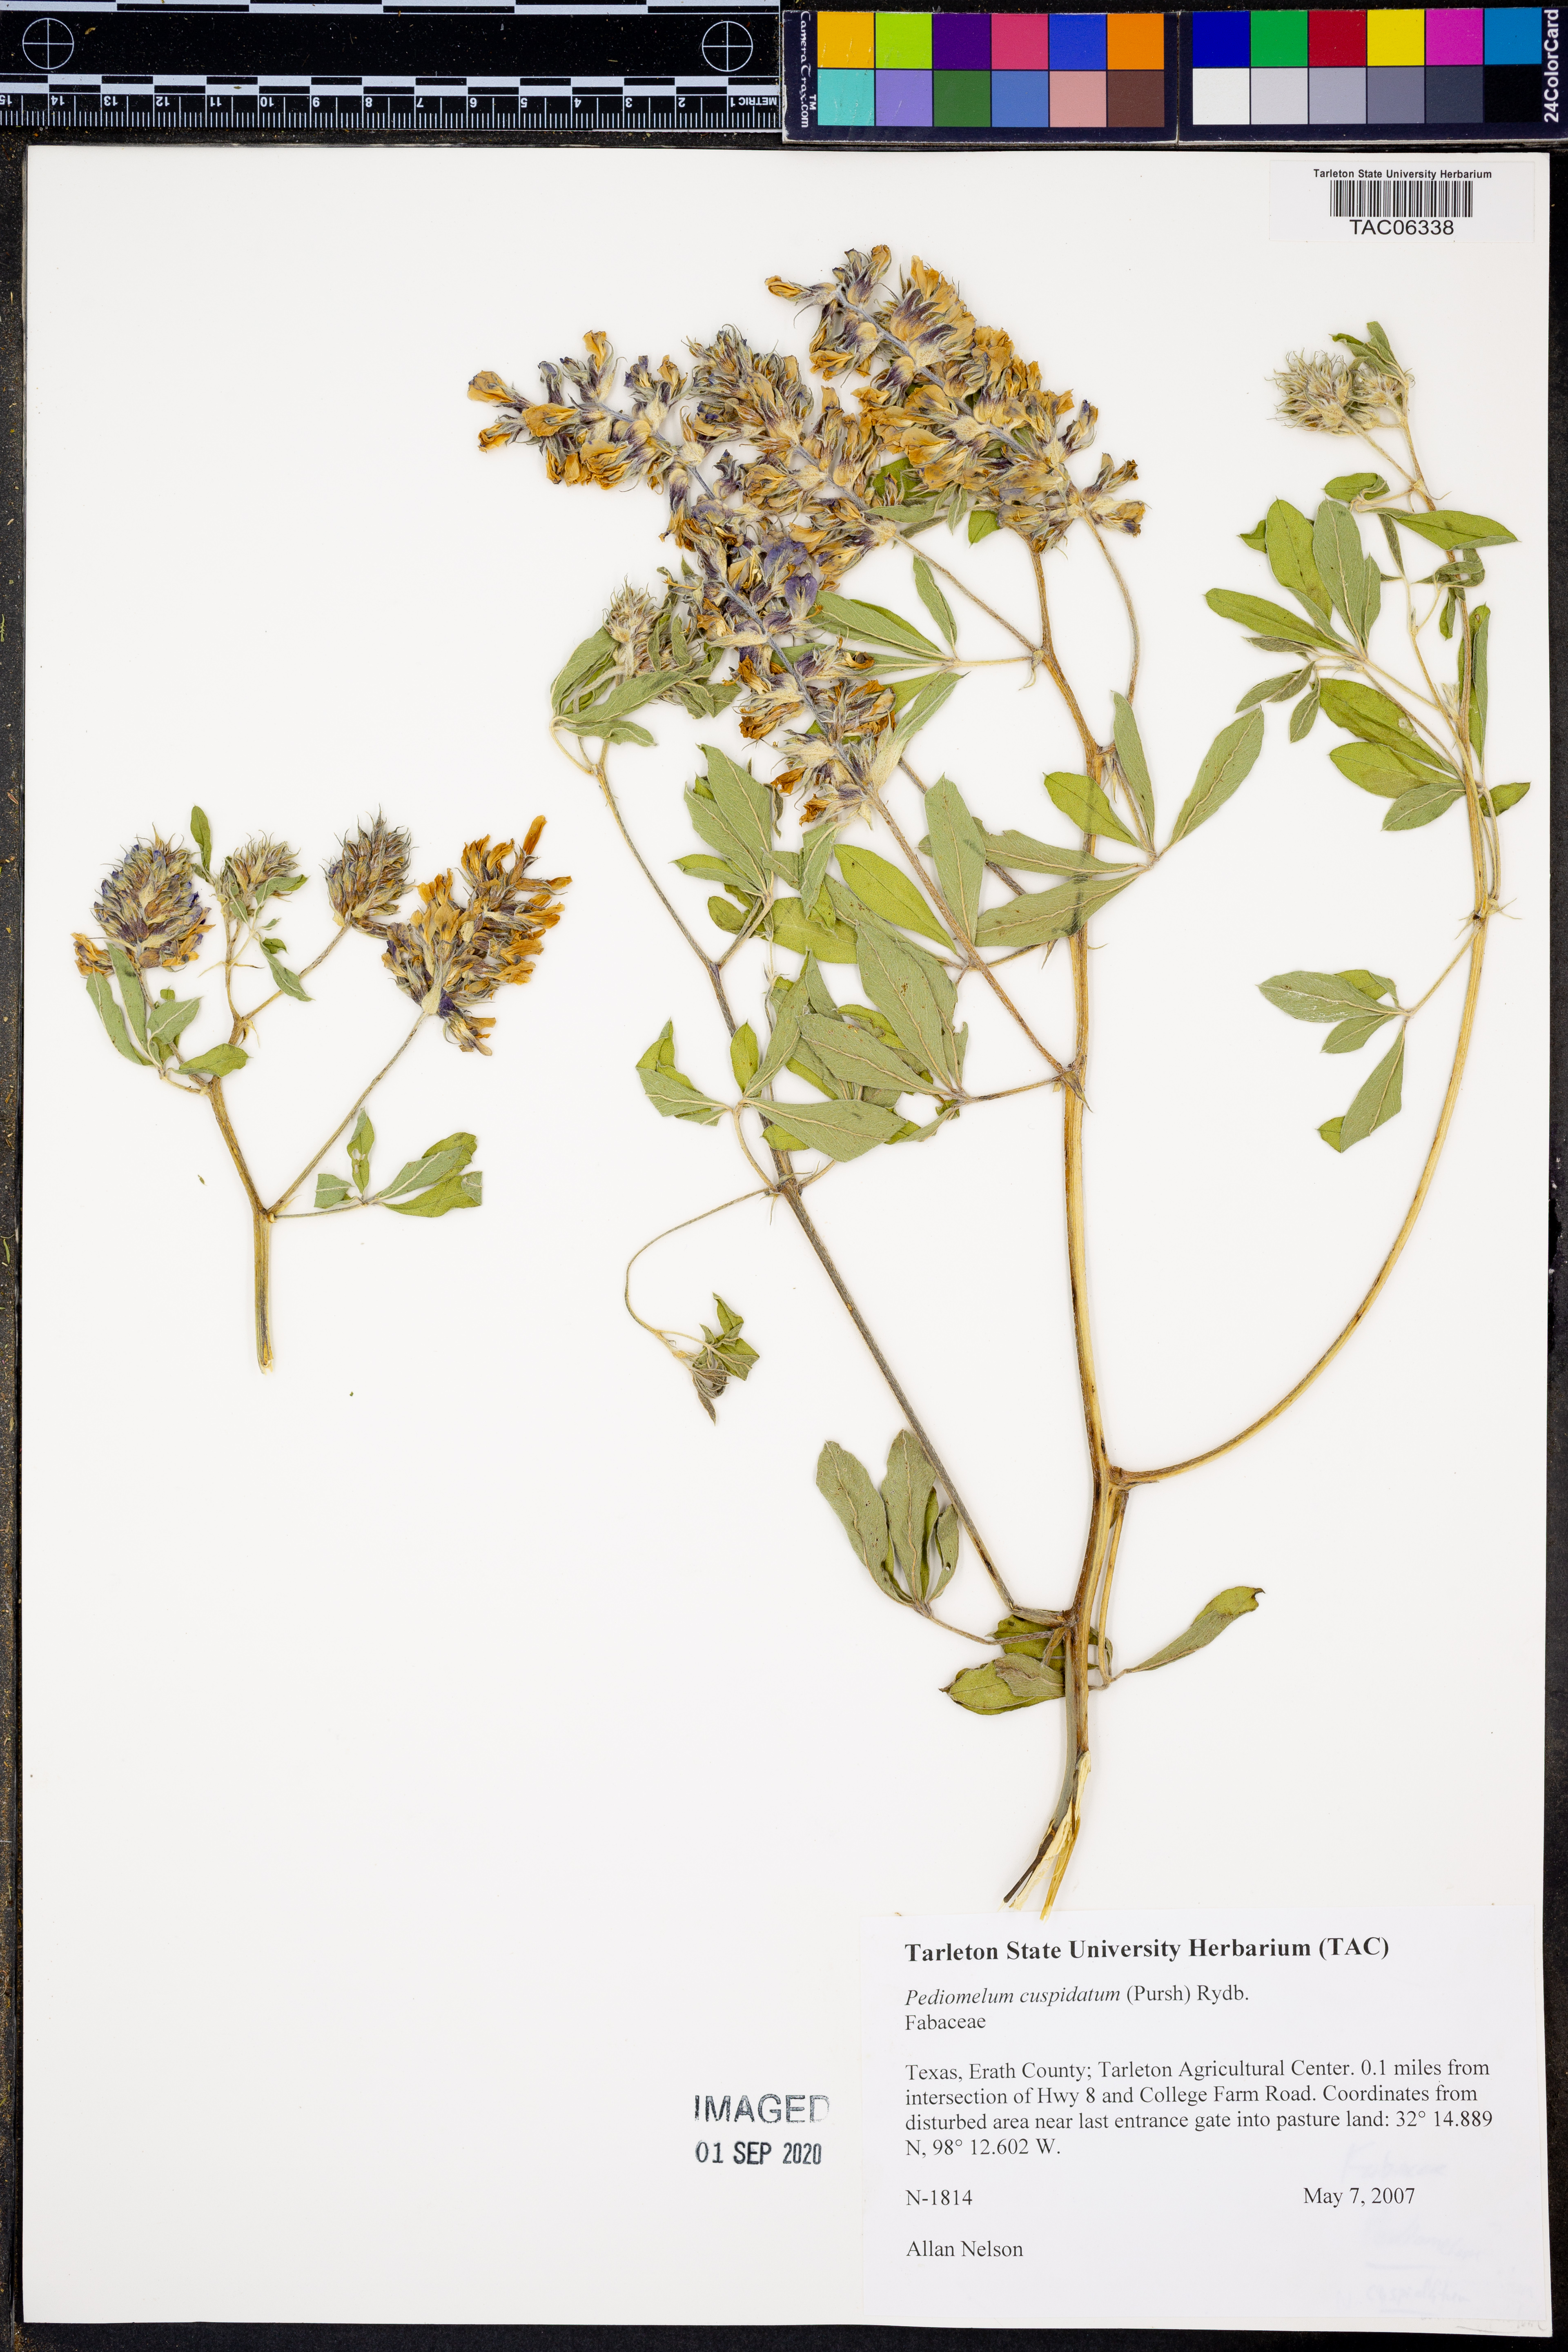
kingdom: Plantae
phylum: Tracheophyta
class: Magnoliopsida
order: Fabales
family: Fabaceae
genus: Pediomelum
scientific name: Pediomelum cuspidatum
